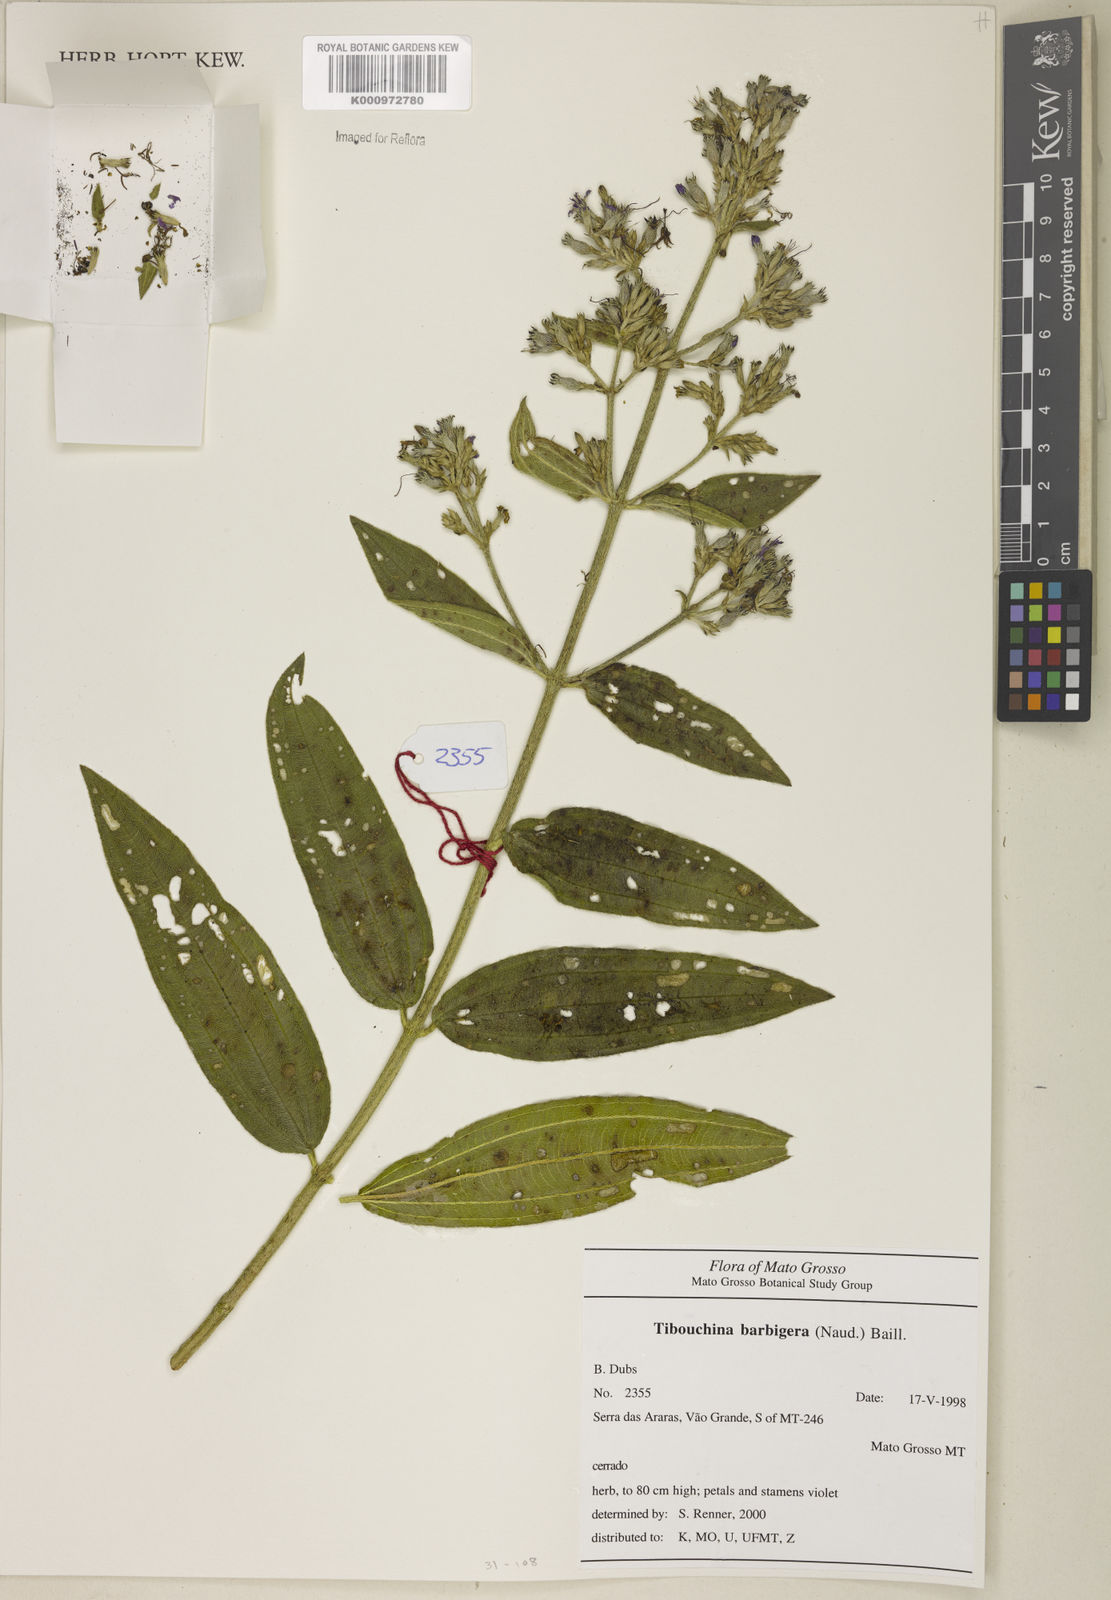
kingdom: Plantae
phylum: Tracheophyta
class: Magnoliopsida
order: Myrtales
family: Melastomataceae
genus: Pleroma
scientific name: Pleroma barbigerum
